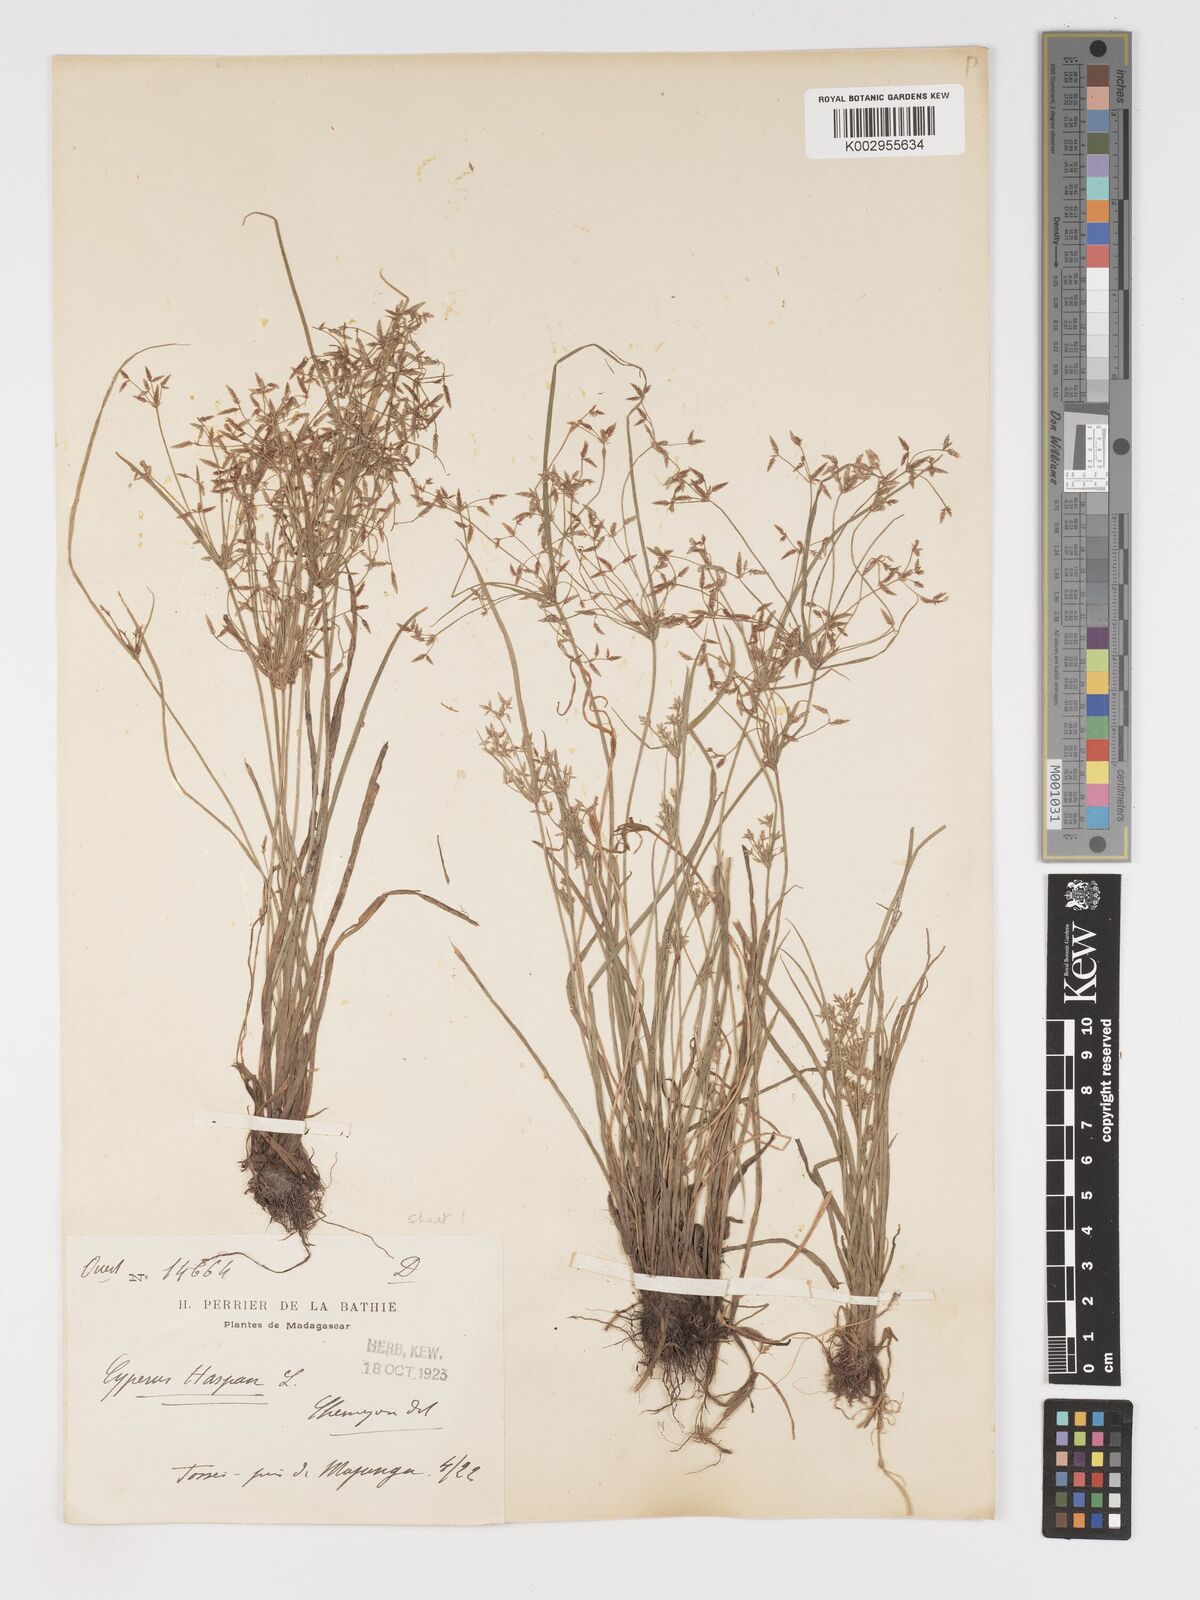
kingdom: Plantae
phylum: Tracheophyta
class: Liliopsida
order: Poales
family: Cyperaceae
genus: Cyperus
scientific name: Cyperus haspan
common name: Haspan flatsedge
